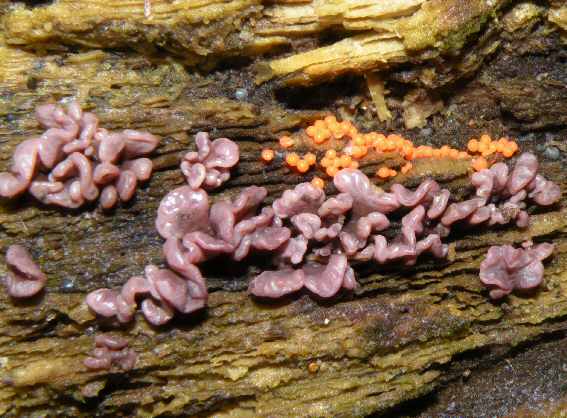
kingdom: Fungi
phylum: Ascomycota
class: Leotiomycetes
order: Helotiales
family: Gelatinodiscaceae
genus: Ascocoryne
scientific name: Ascocoryne sarcoides
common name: rødlilla sejskive
